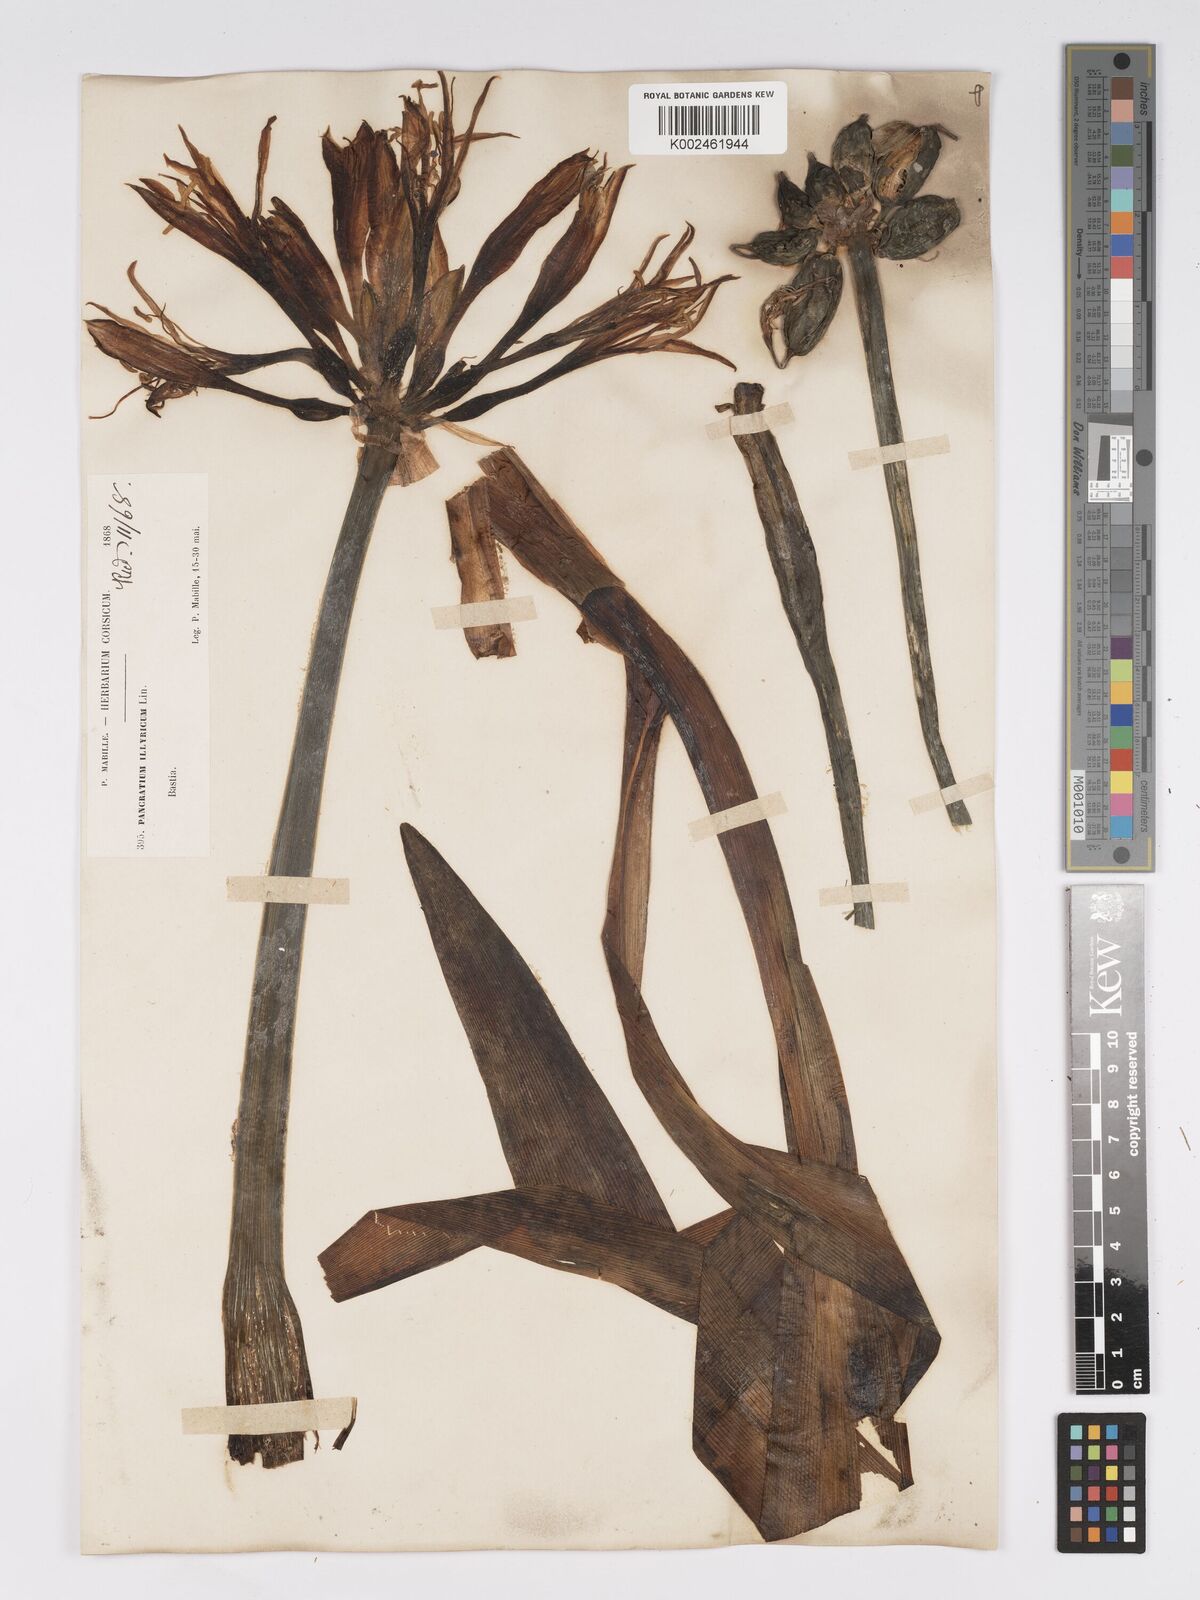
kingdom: Plantae
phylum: Tracheophyta
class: Liliopsida
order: Asparagales
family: Amaryllidaceae
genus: Pancratium
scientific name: Pancratium illyricum
